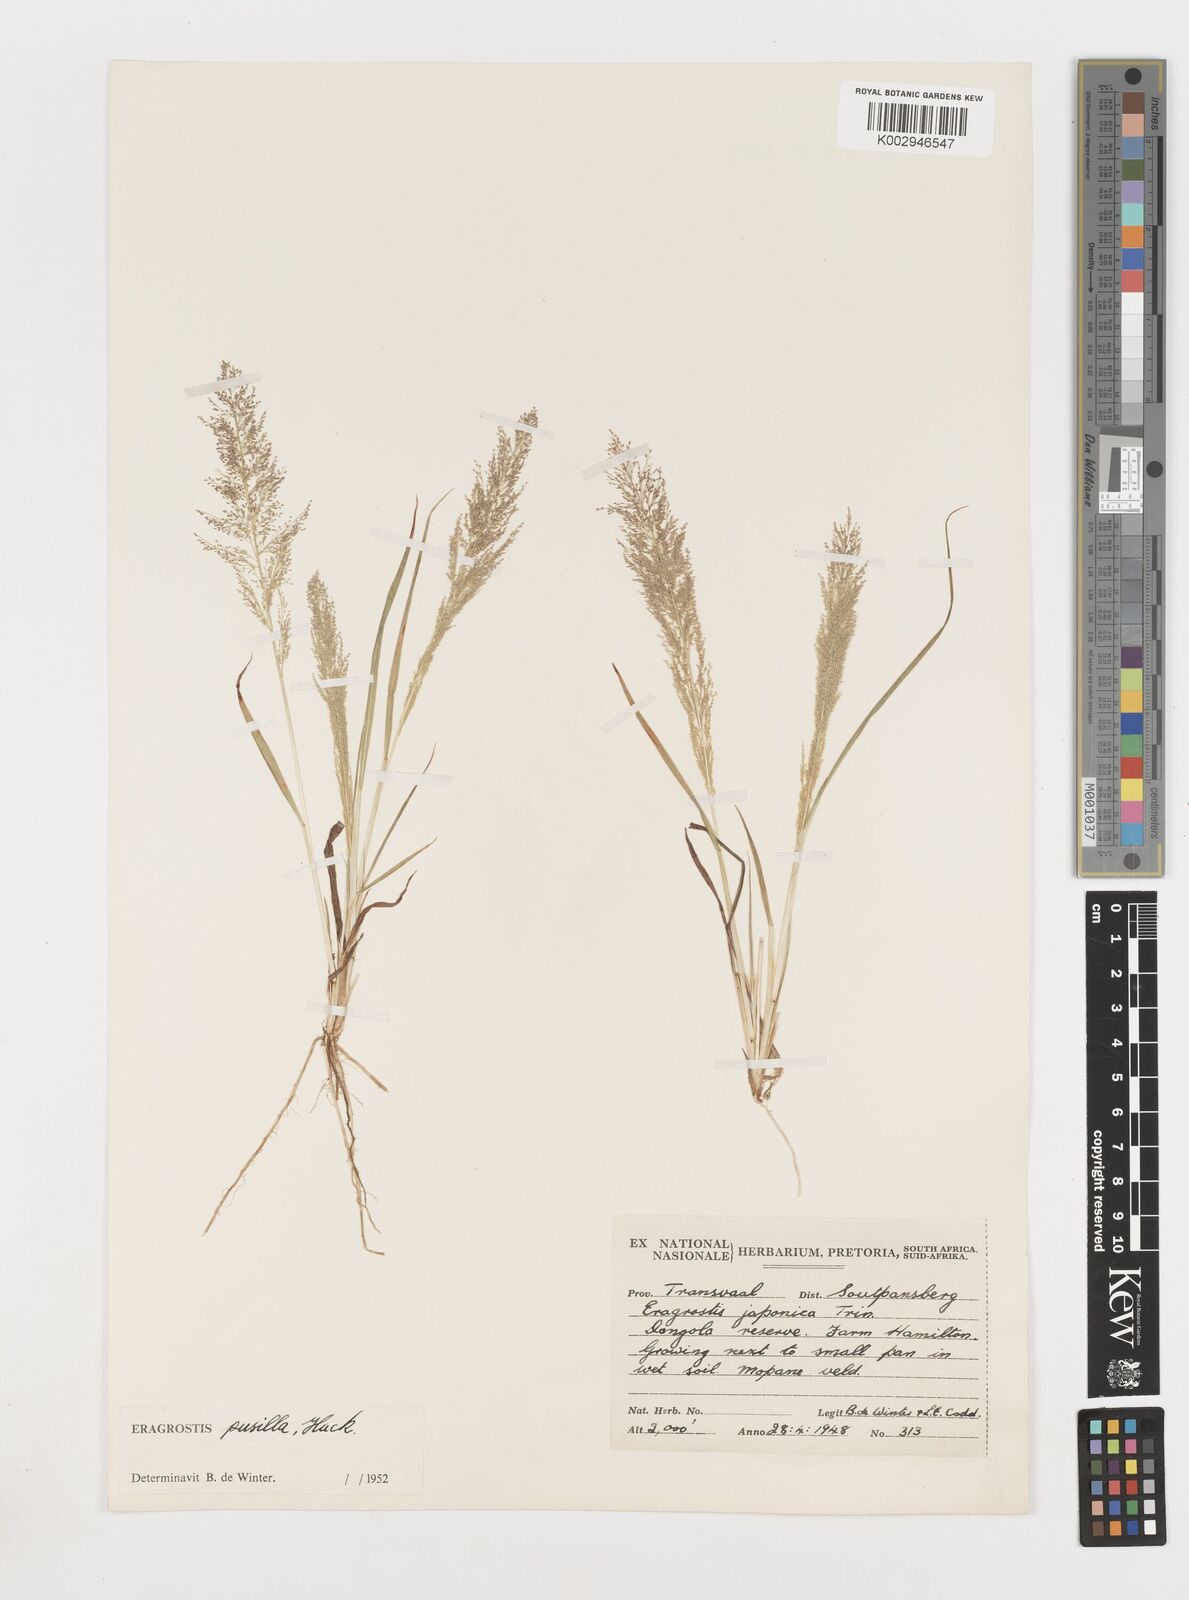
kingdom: Plantae
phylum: Tracheophyta
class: Liliopsida
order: Poales
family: Poaceae
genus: Eragrostis
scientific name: Eragrostis pusilla
